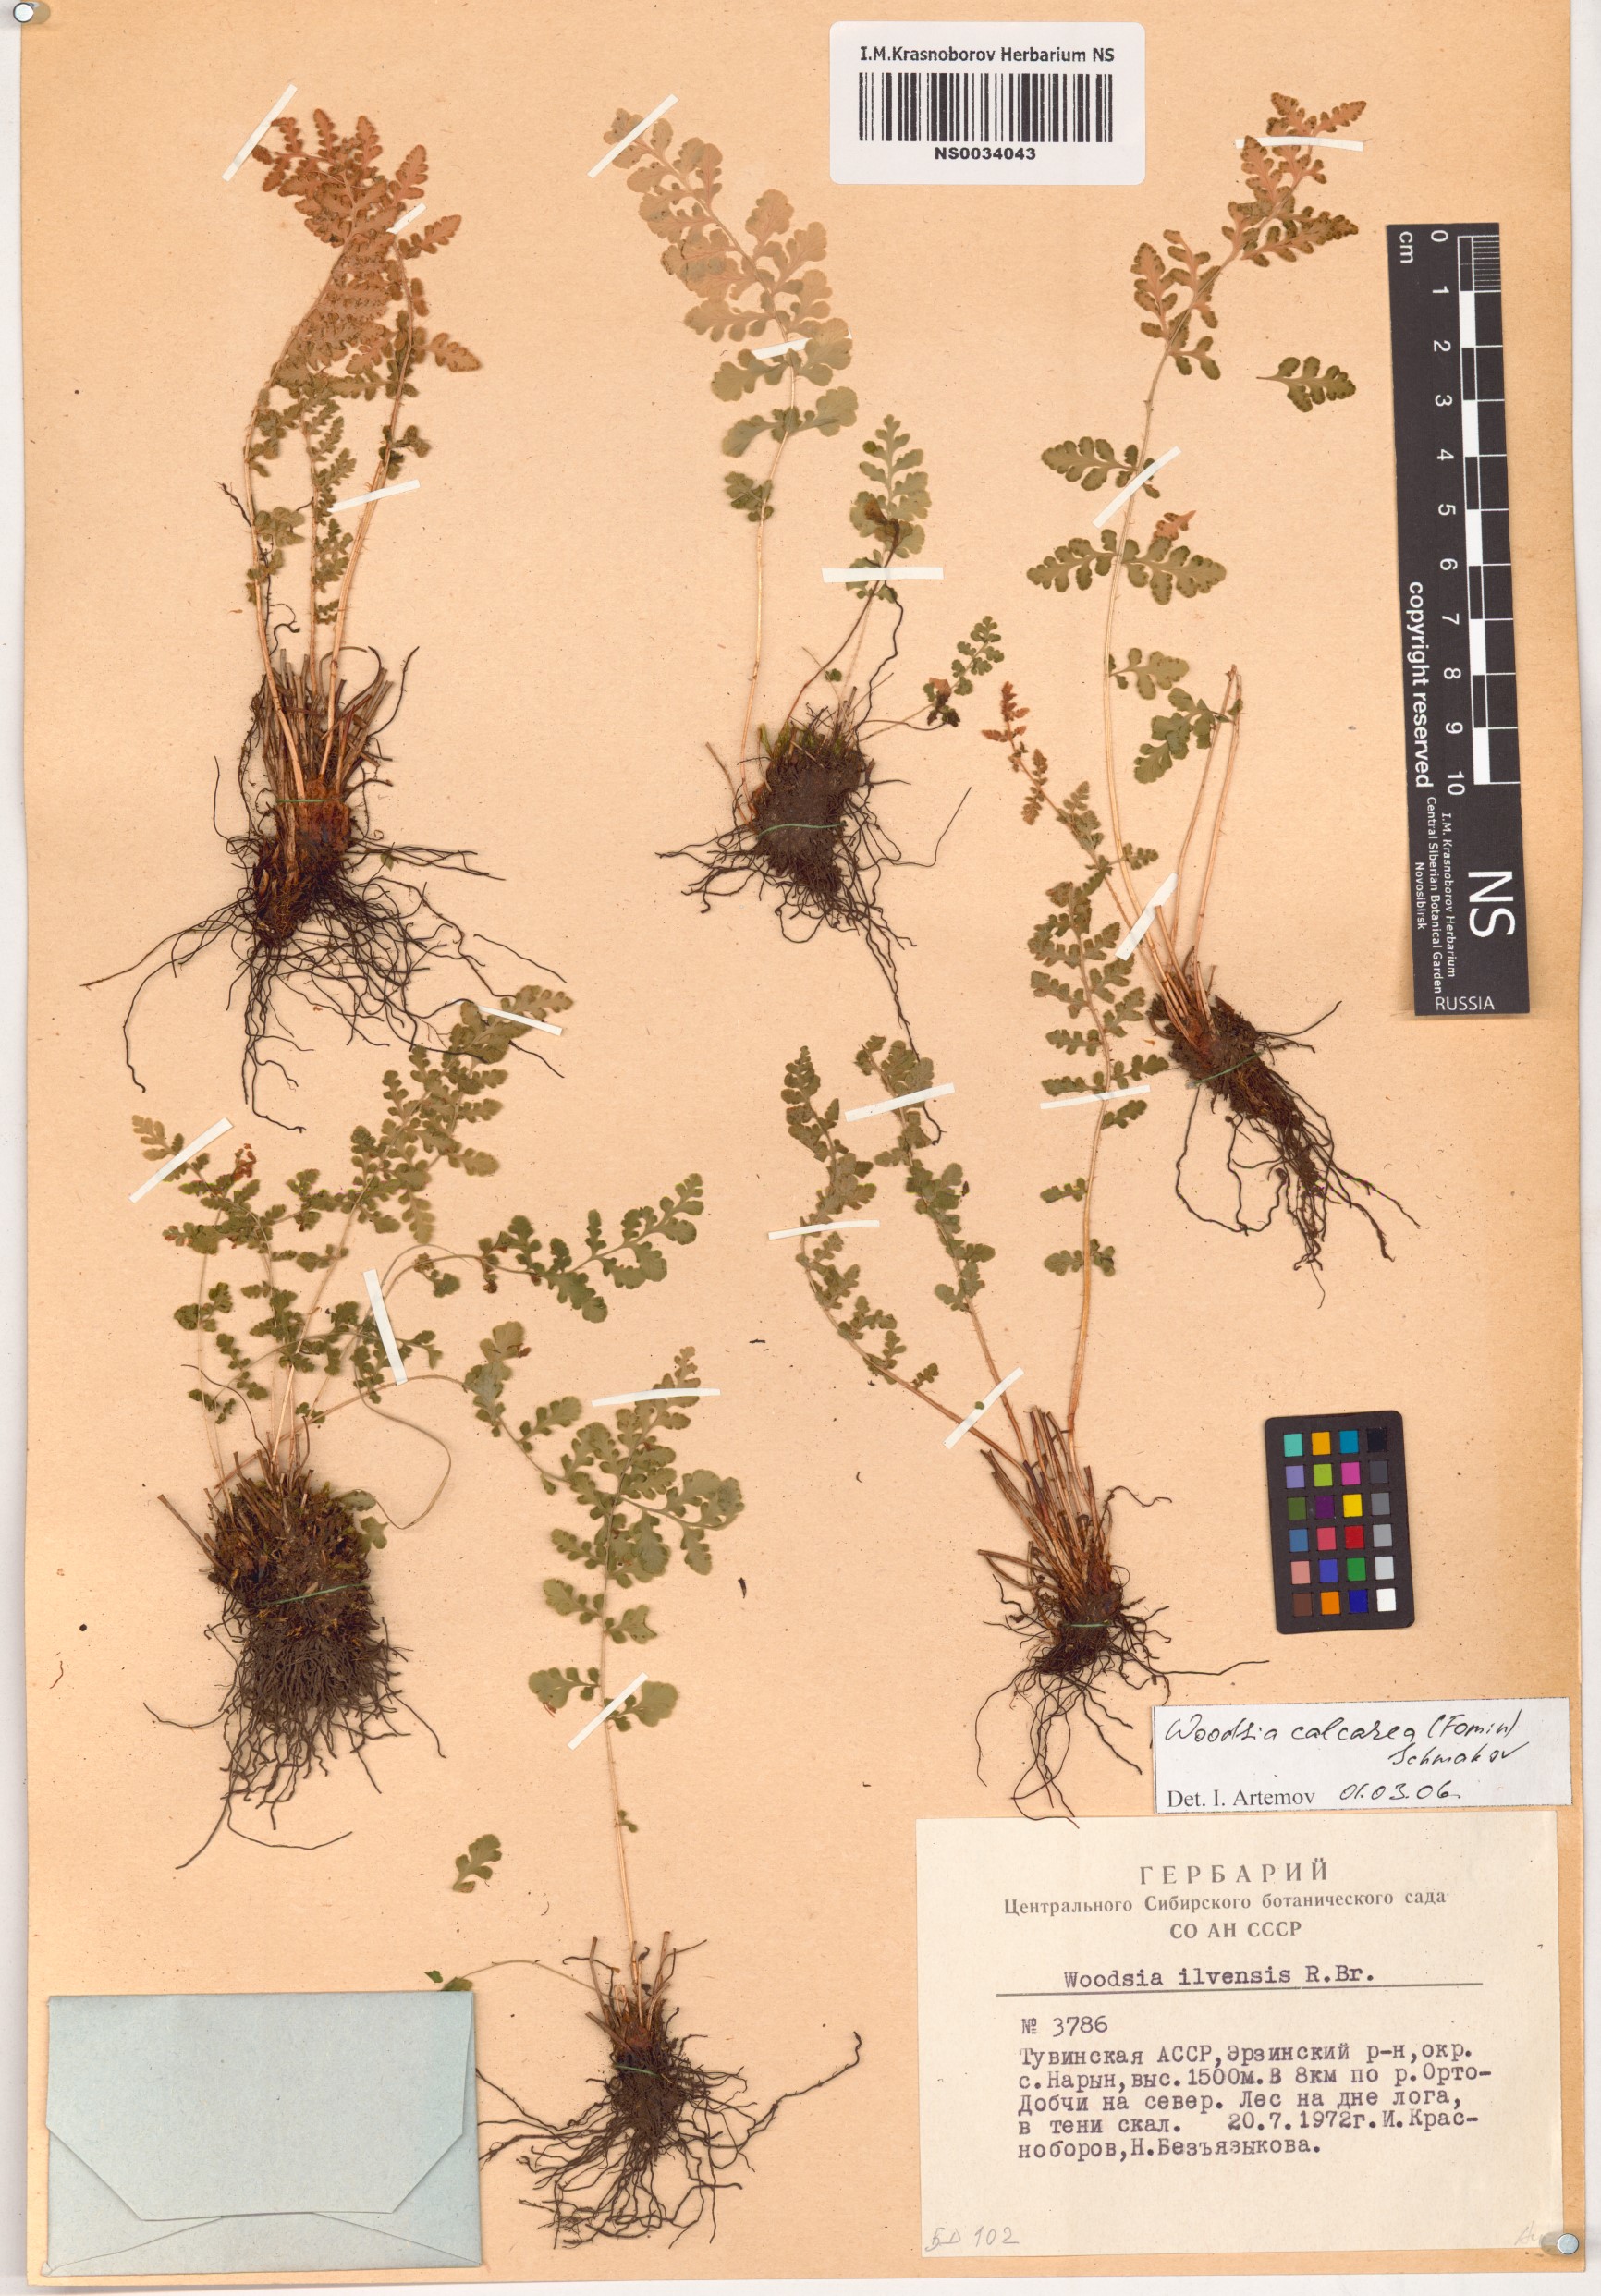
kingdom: Plantae
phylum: Tracheophyta
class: Polypodiopsida
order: Polypodiales
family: Woodsiaceae
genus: Woodsia
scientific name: Woodsia calcarea
